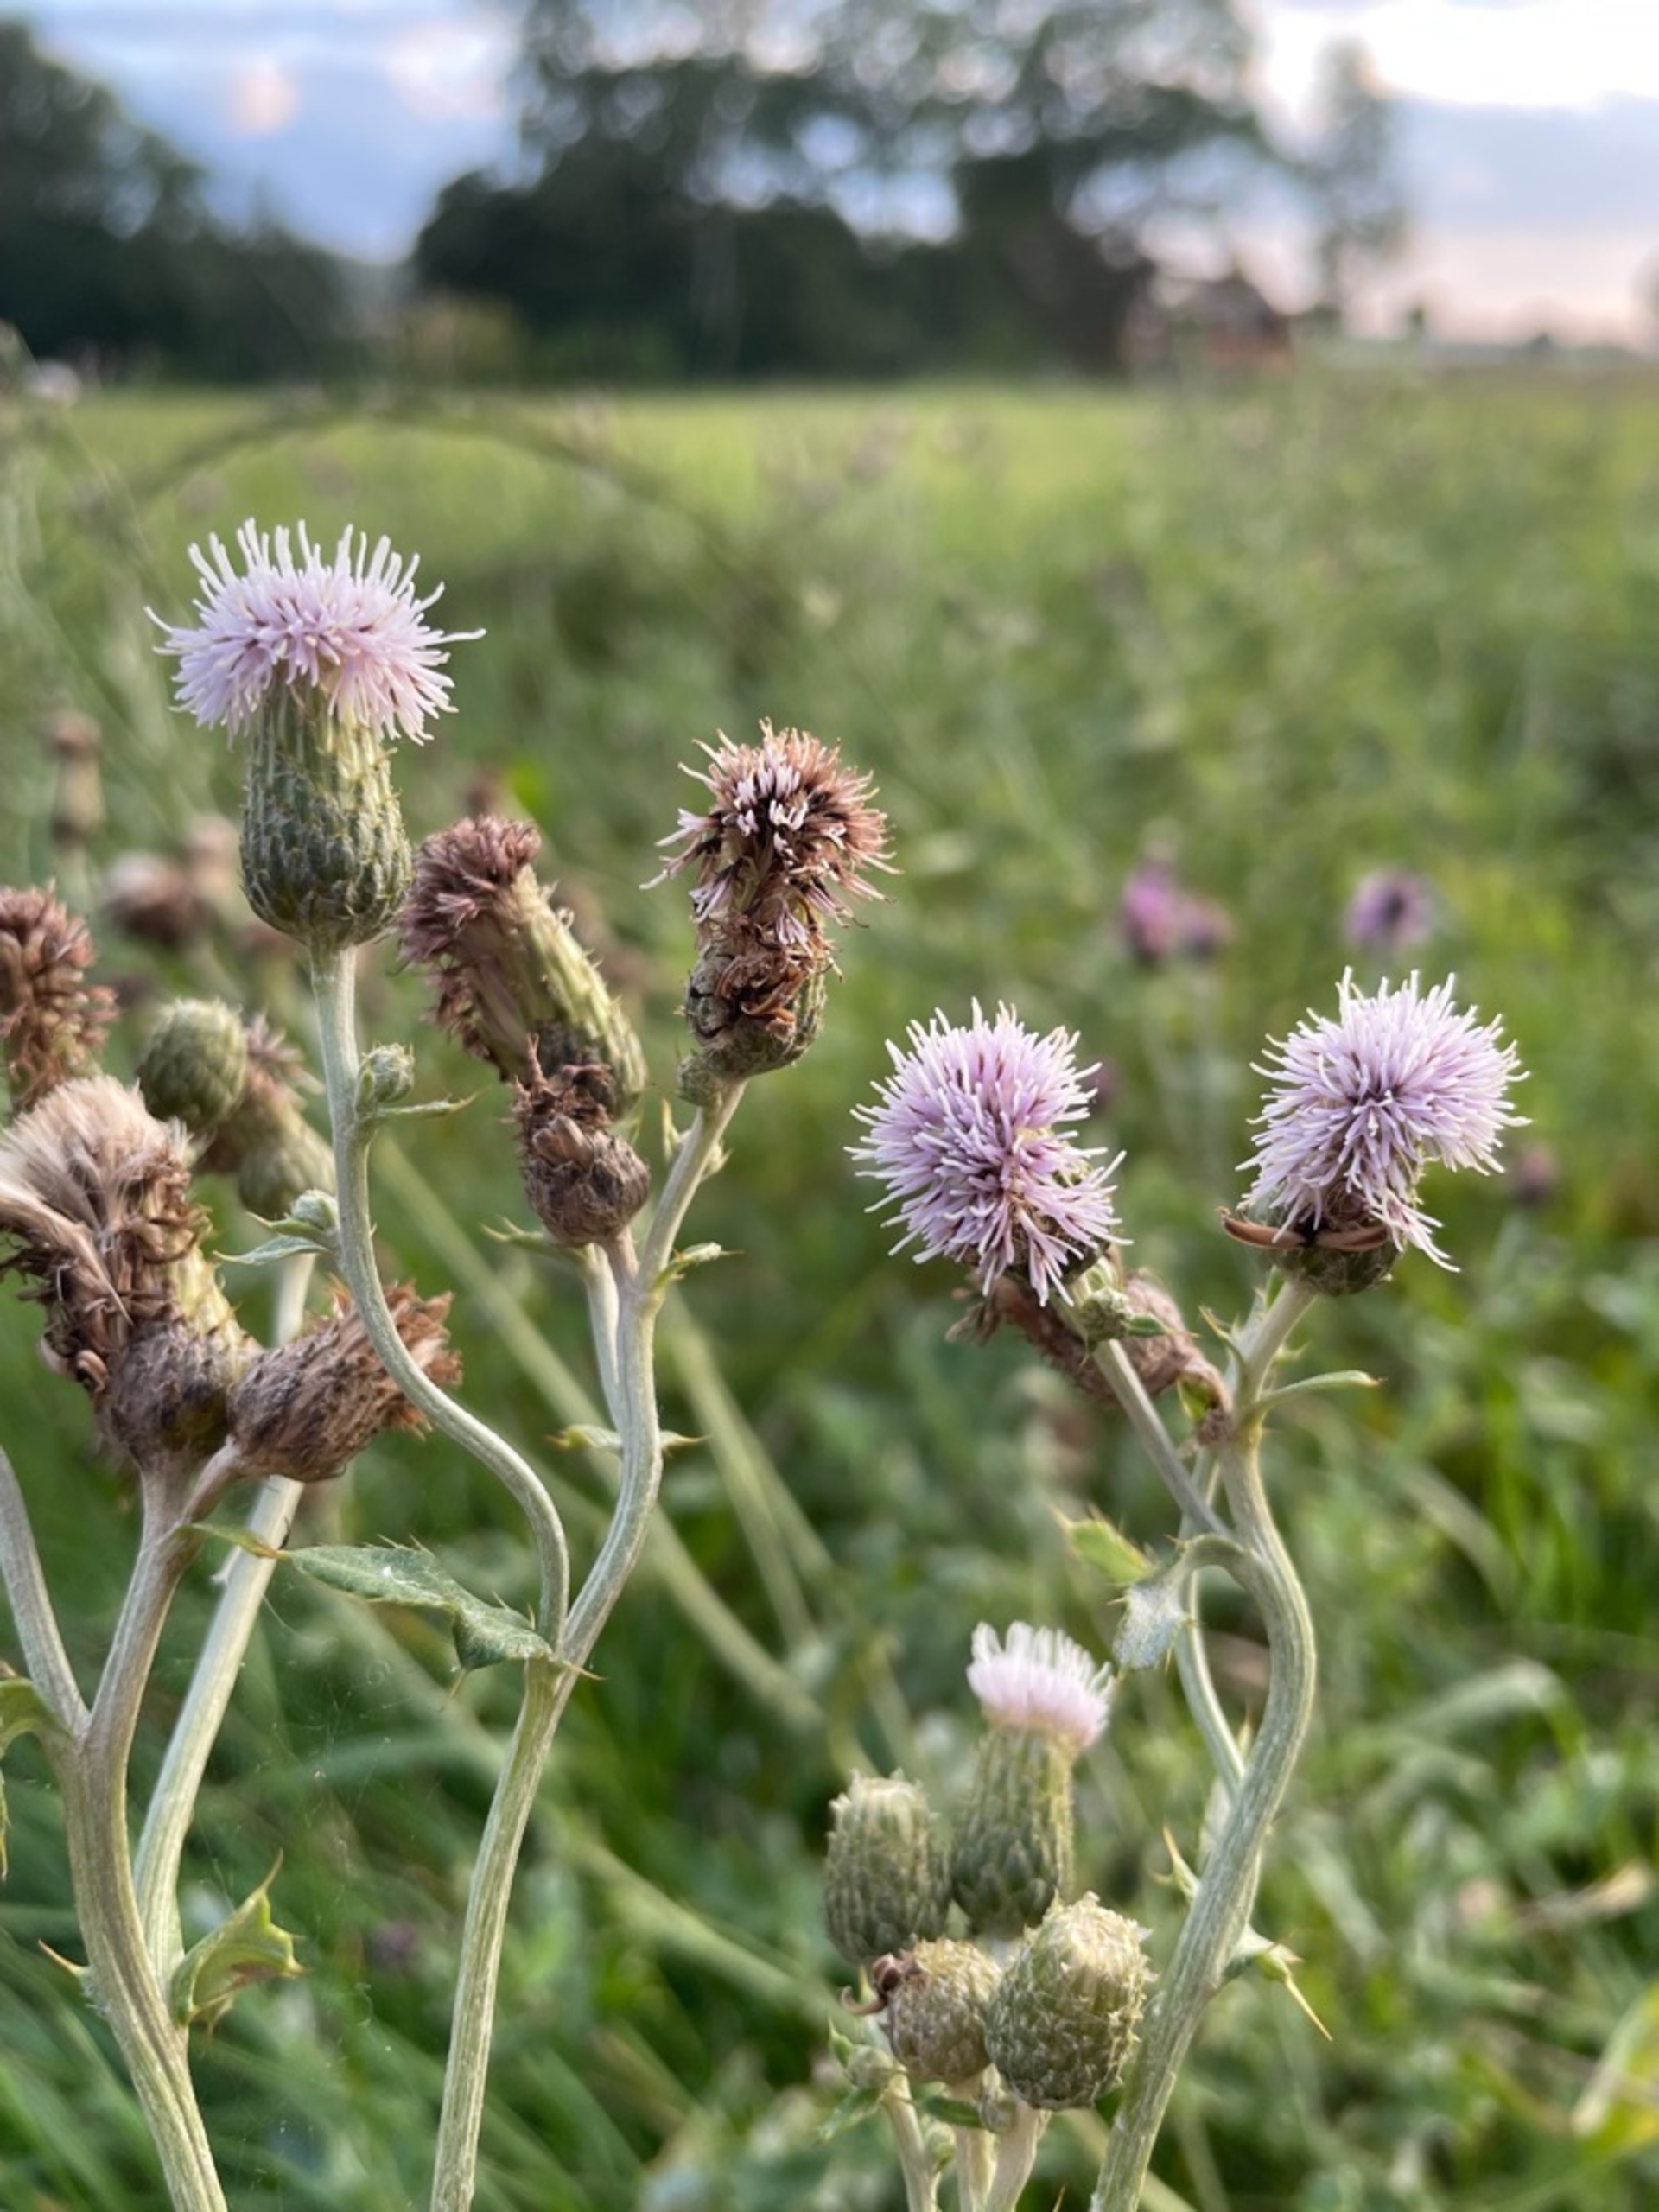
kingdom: Plantae
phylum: Tracheophyta
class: Magnoliopsida
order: Asterales
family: Asteraceae
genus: Cirsium
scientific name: Cirsium arvense
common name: Ager-tidsel
